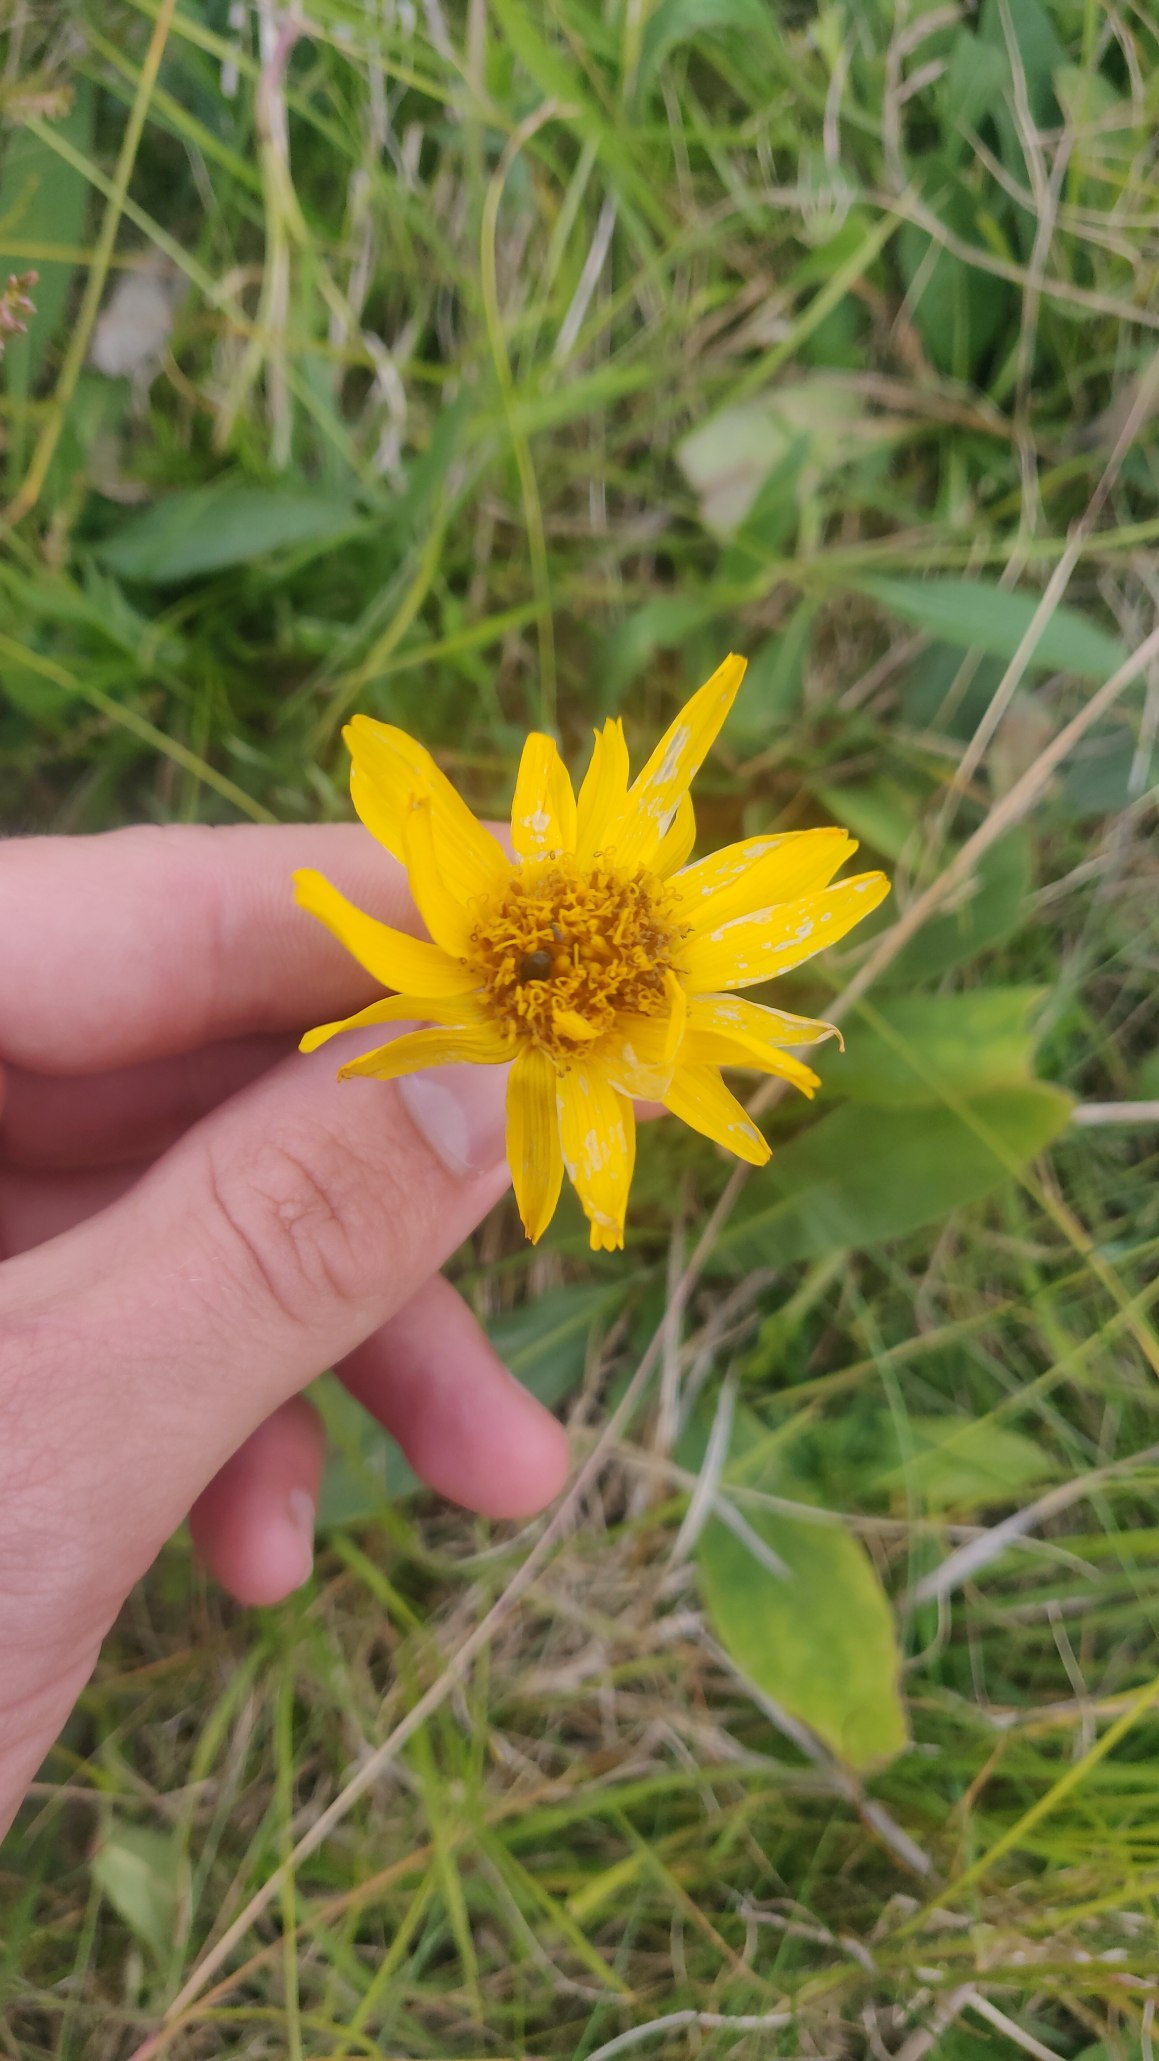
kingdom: Plantae
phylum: Tracheophyta
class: Magnoliopsida
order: Asterales
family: Asteraceae
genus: Arnica
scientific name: Arnica montana
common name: Guldblomme
